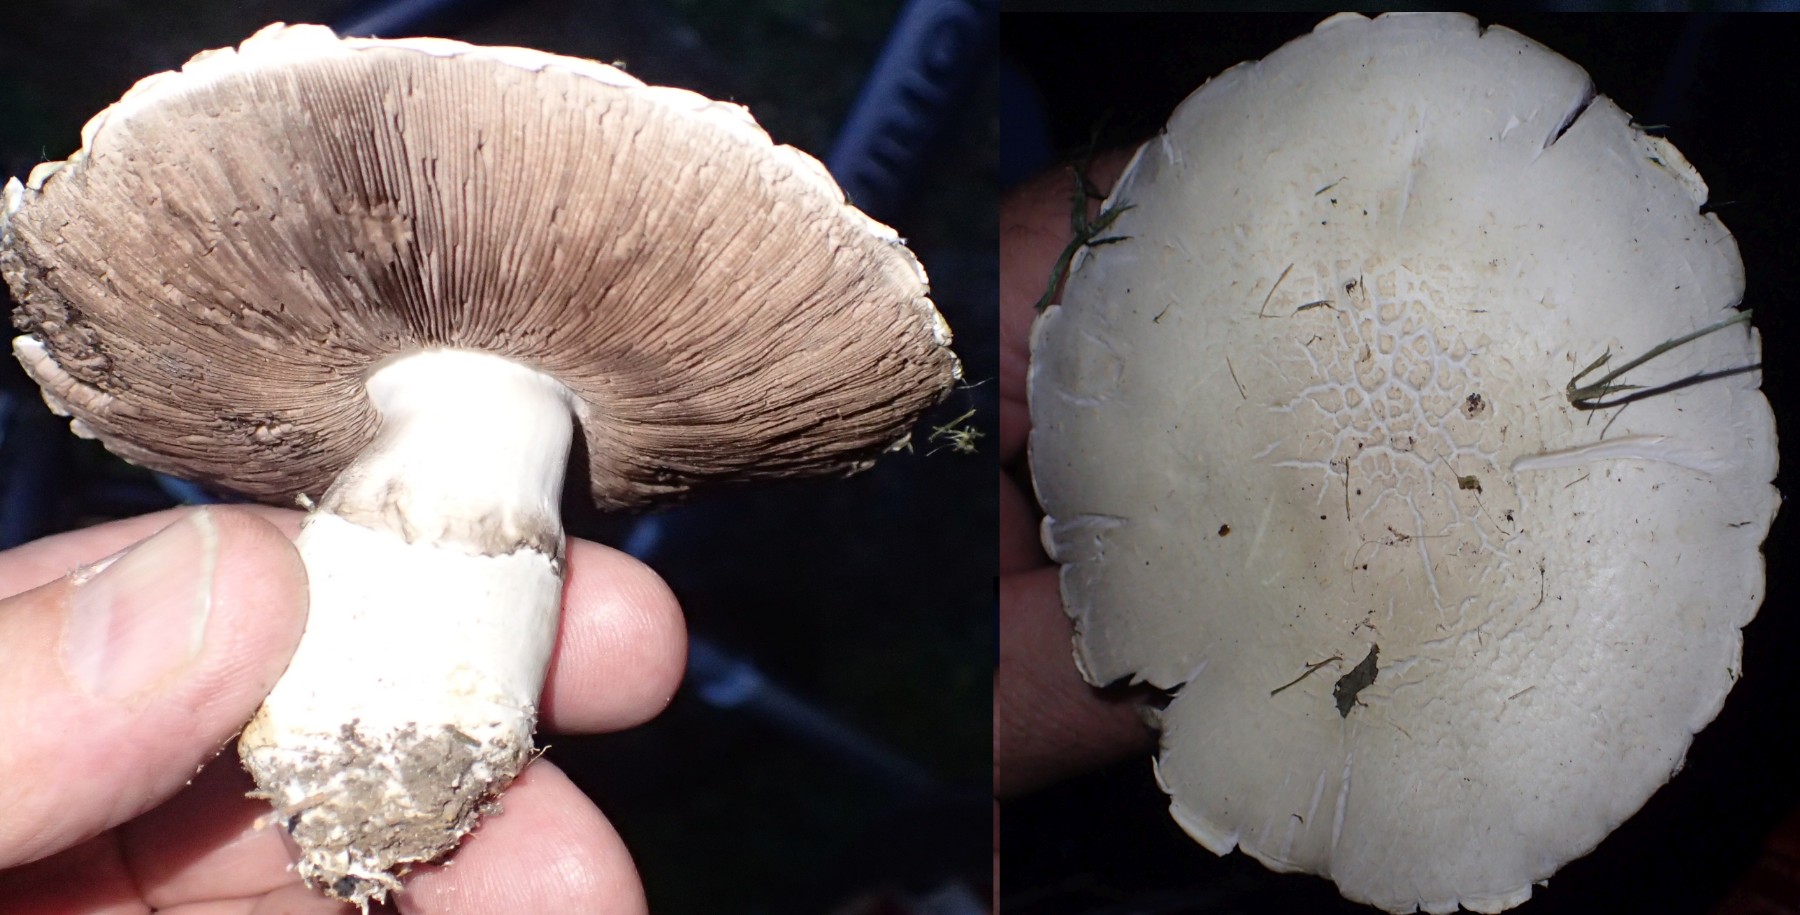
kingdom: Fungi
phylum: Basidiomycota
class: Agaricomycetes
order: Agaricales
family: Agaricaceae
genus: Agaricus
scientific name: Agaricus campestris
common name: mark-champignon
